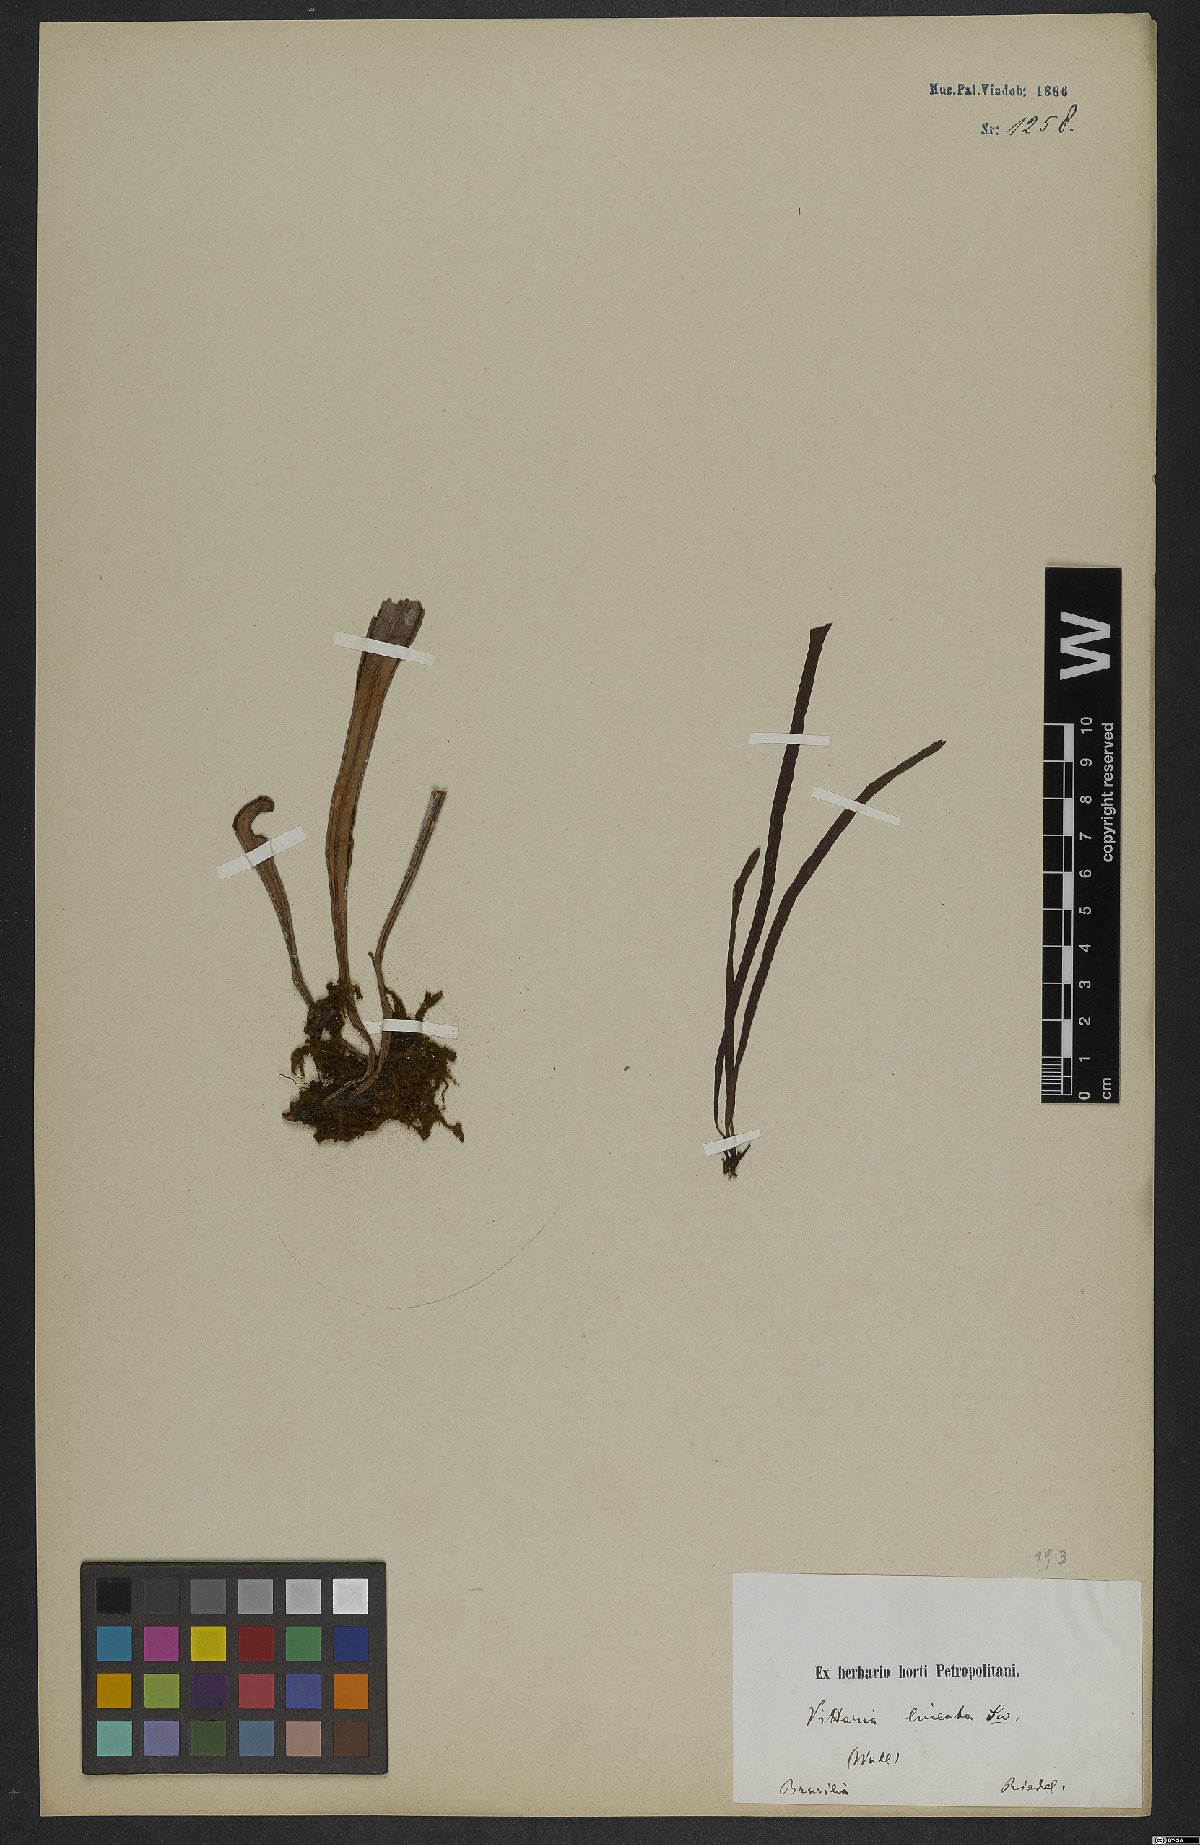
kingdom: Plantae
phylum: Tracheophyta
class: Polypodiopsida
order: Polypodiales
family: Pteridaceae
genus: Vittaria
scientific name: Vittaria
